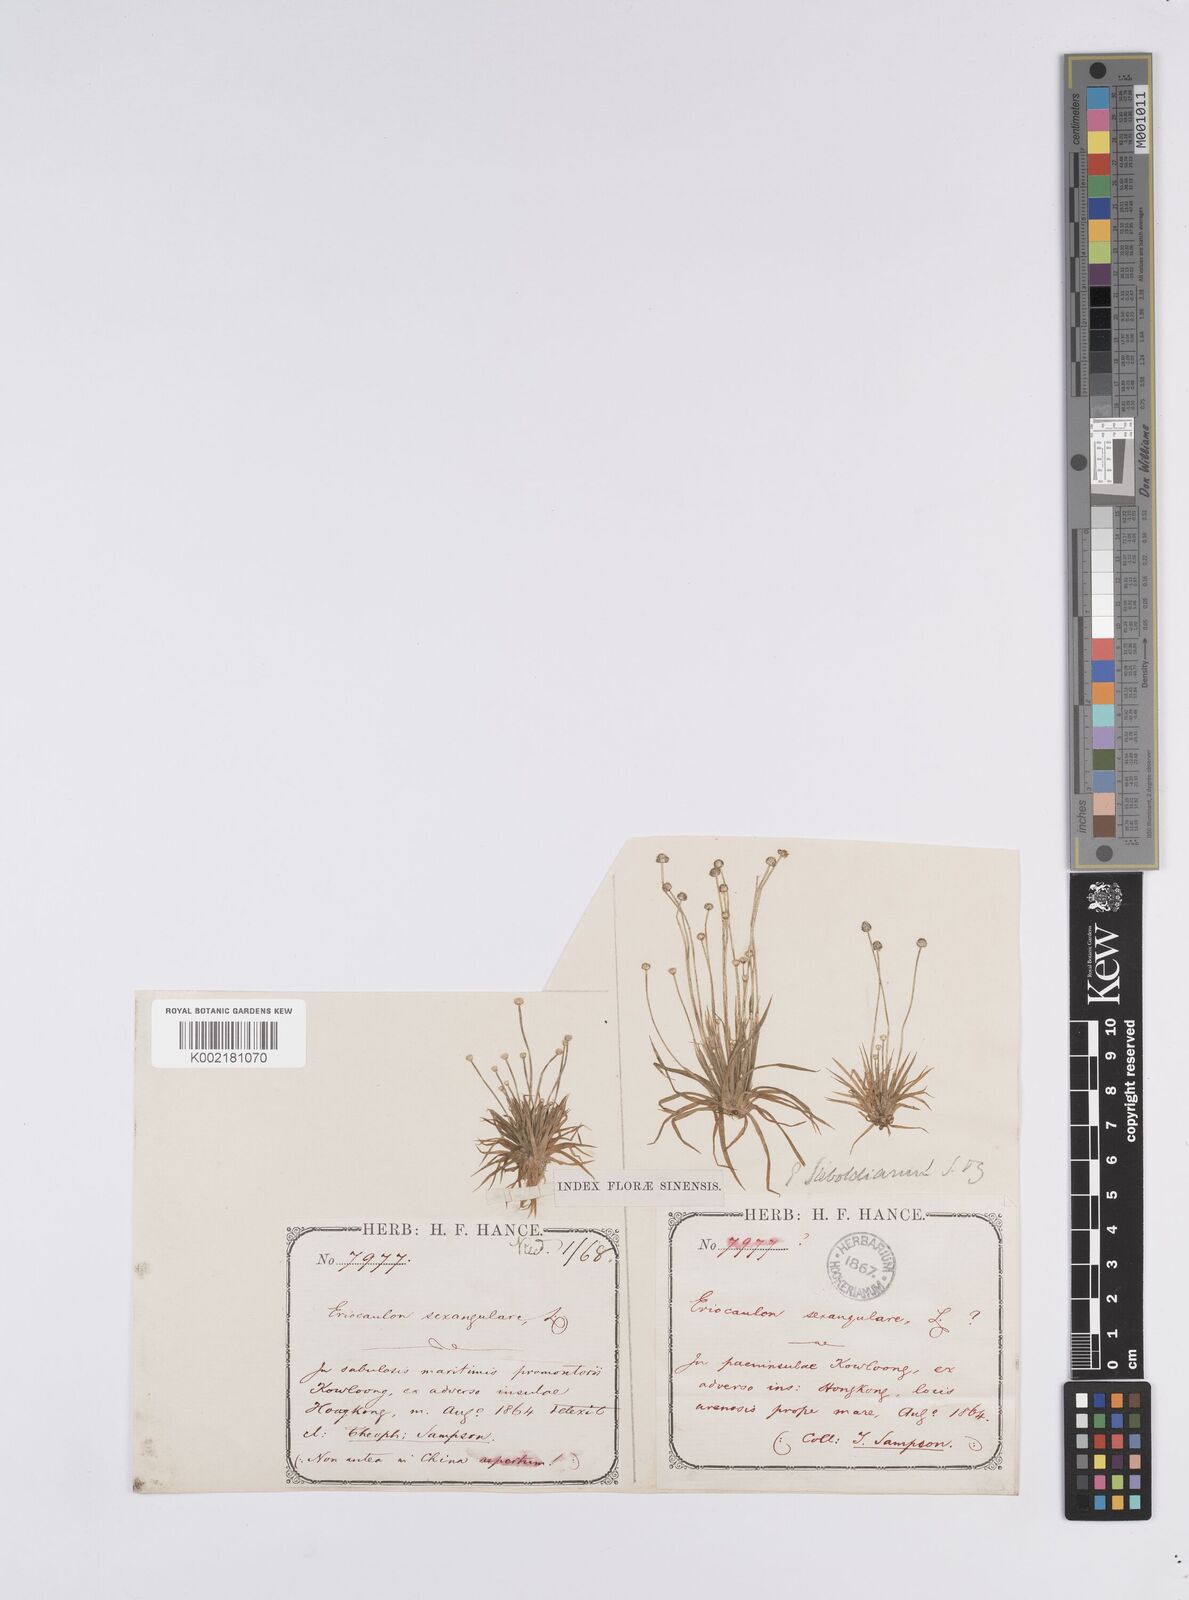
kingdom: Plantae
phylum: Tracheophyta
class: Liliopsida
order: Poales
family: Eriocaulaceae
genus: Eriocaulon
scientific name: Eriocaulon sexangulare
